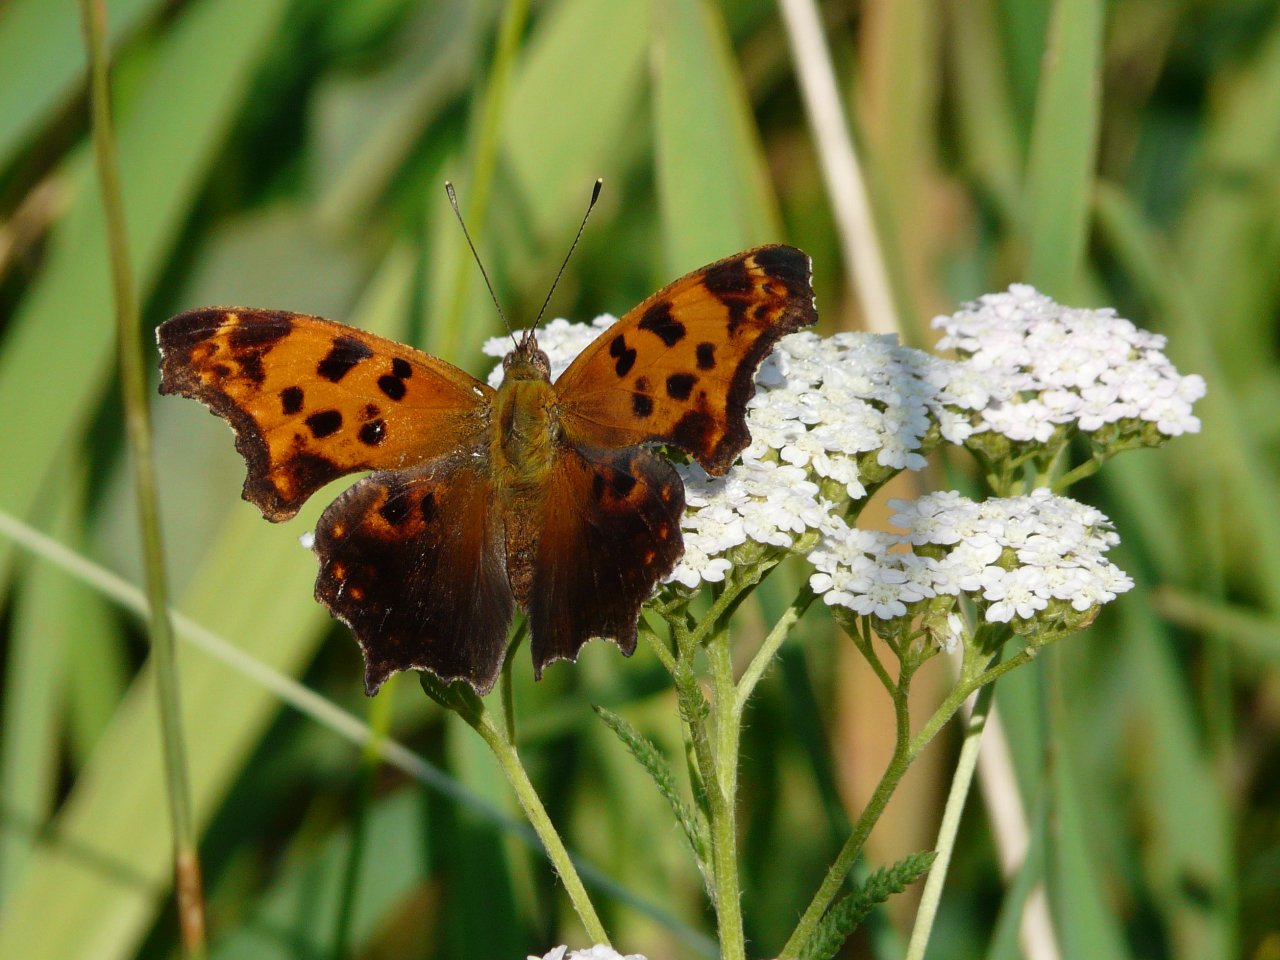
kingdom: Animalia
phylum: Arthropoda
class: Insecta
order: Lepidoptera
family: Nymphalidae
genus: Polygonia
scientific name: Polygonia comma
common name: Eastern Comma
